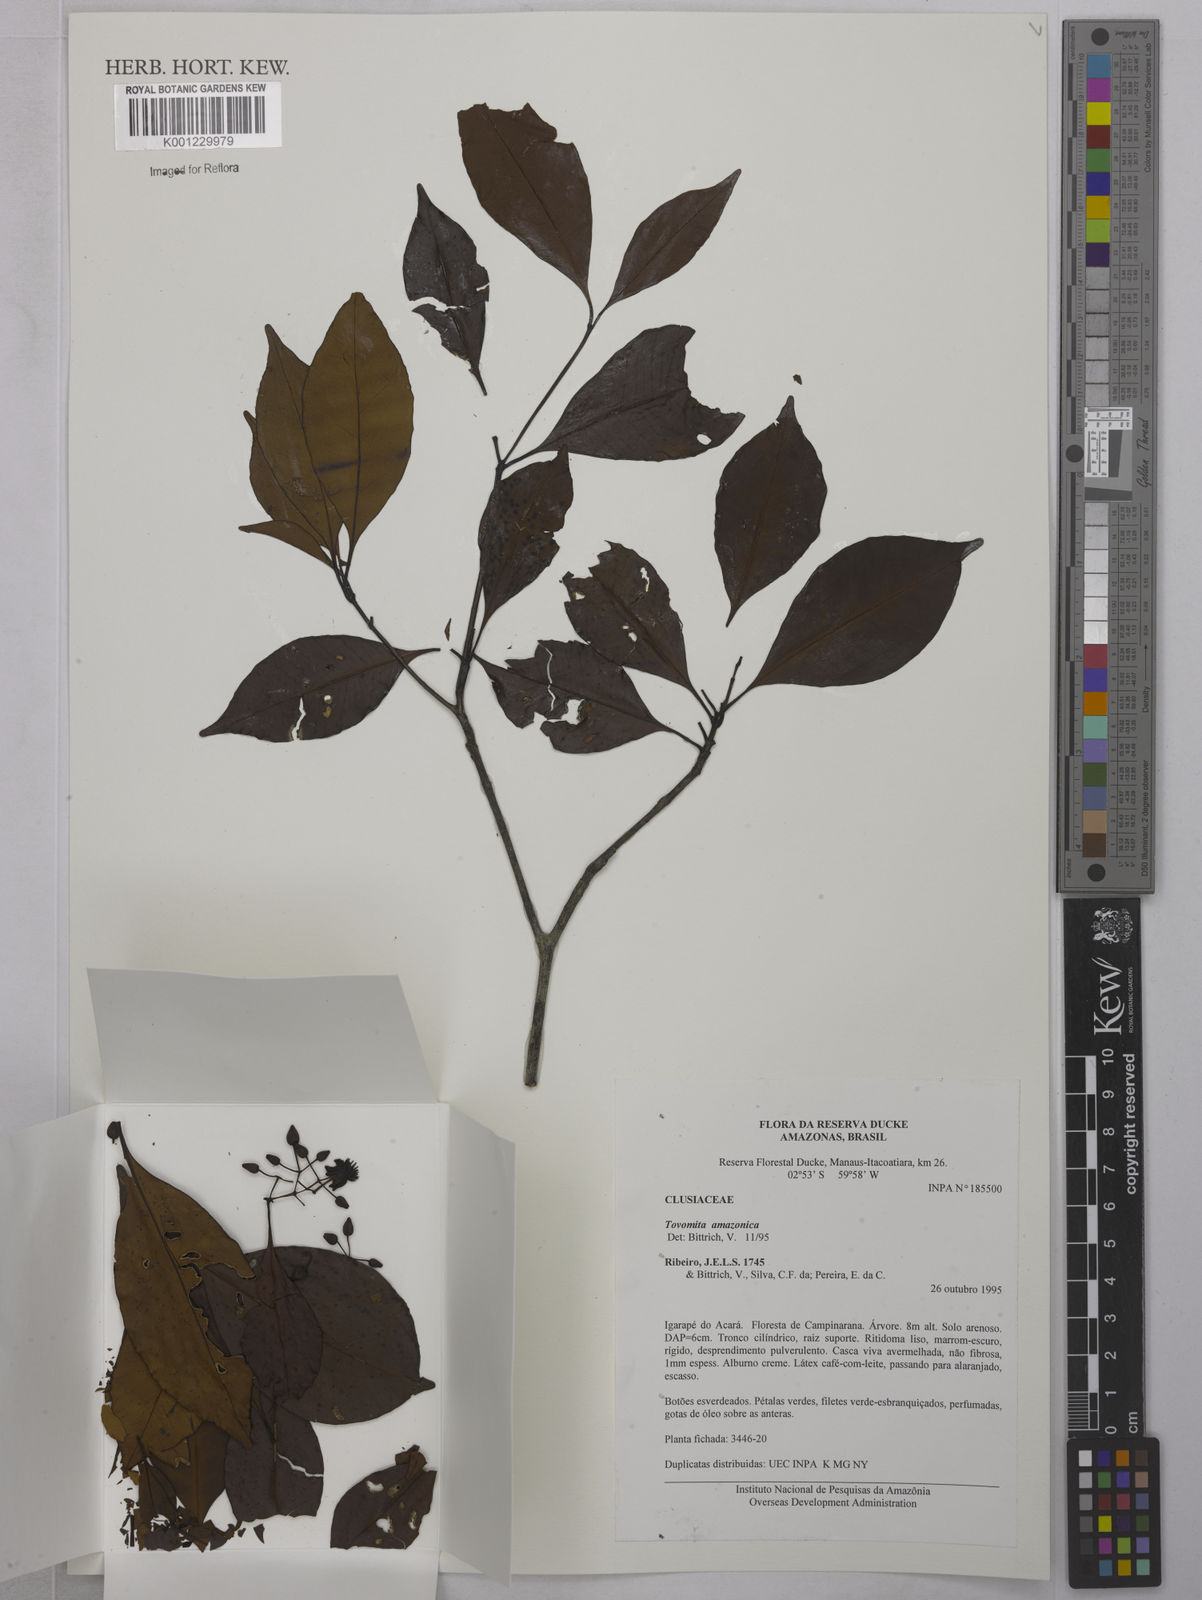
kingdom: Plantae
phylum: Tracheophyta
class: Magnoliopsida
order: Malpighiales
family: Clusiaceae
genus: Tovomita
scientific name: Tovomita amazonica
